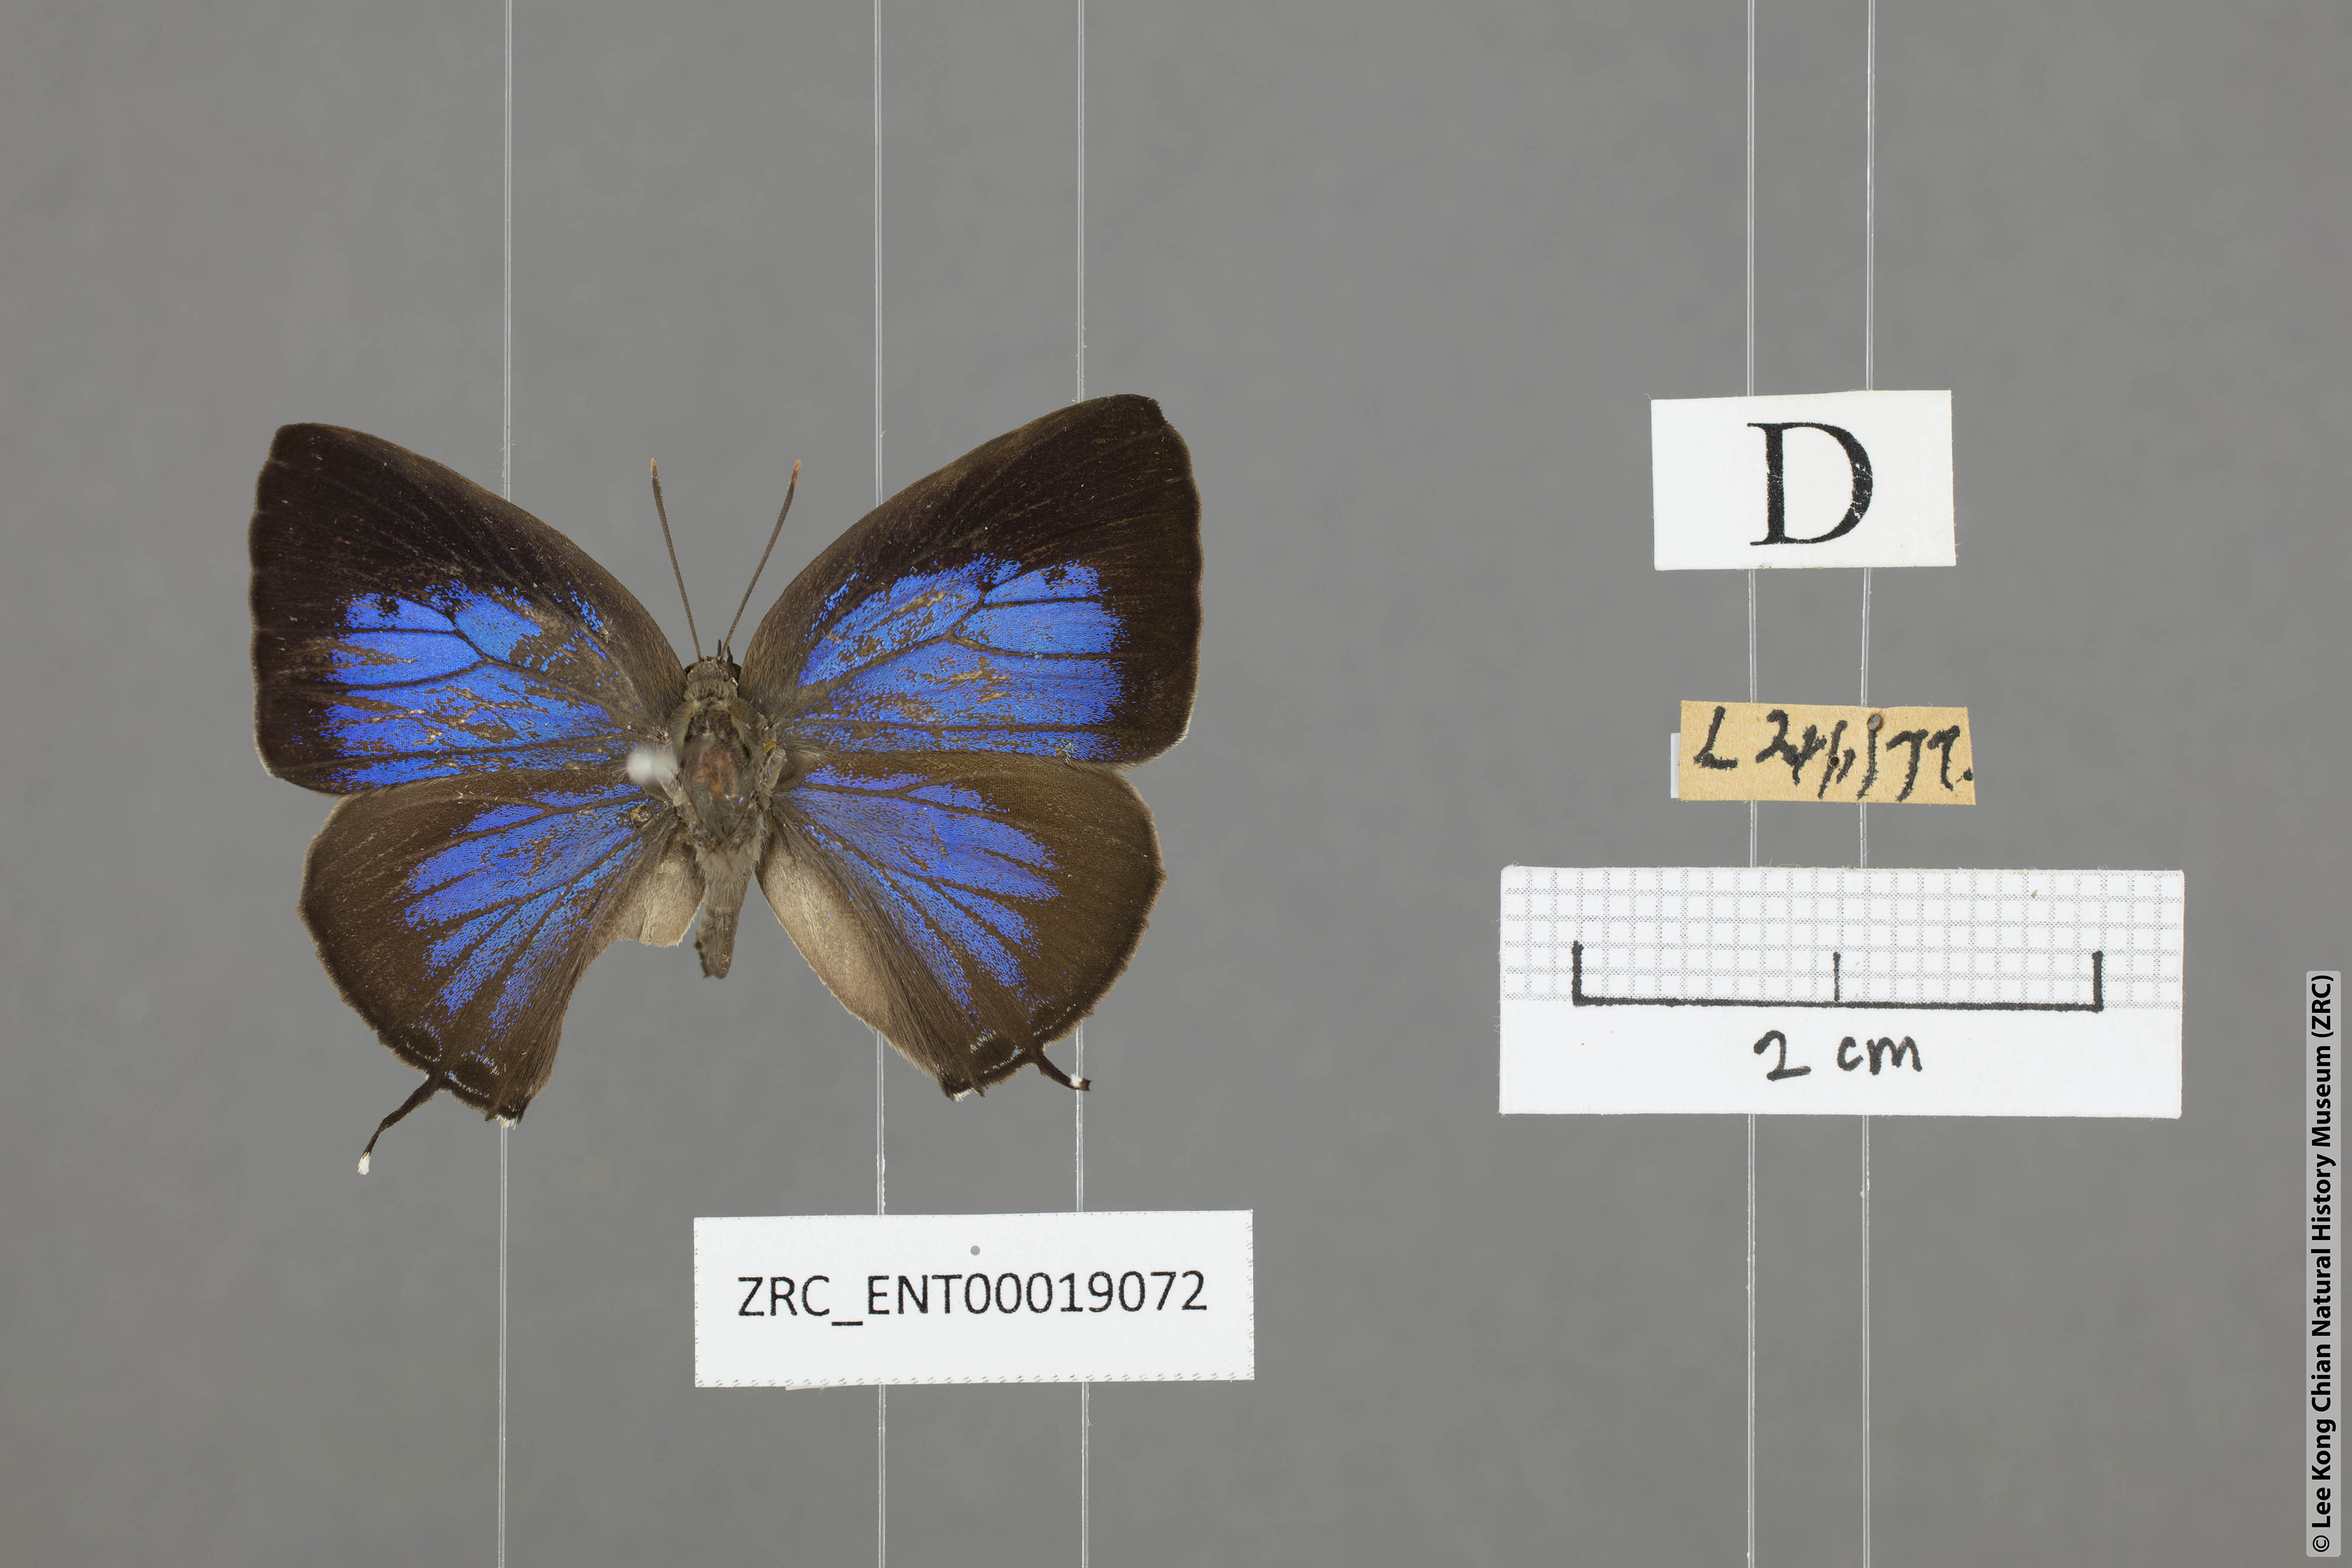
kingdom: Animalia
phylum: Arthropoda
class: Insecta
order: Lepidoptera
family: Lycaenidae
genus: Arhopala
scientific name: Arhopala aida
